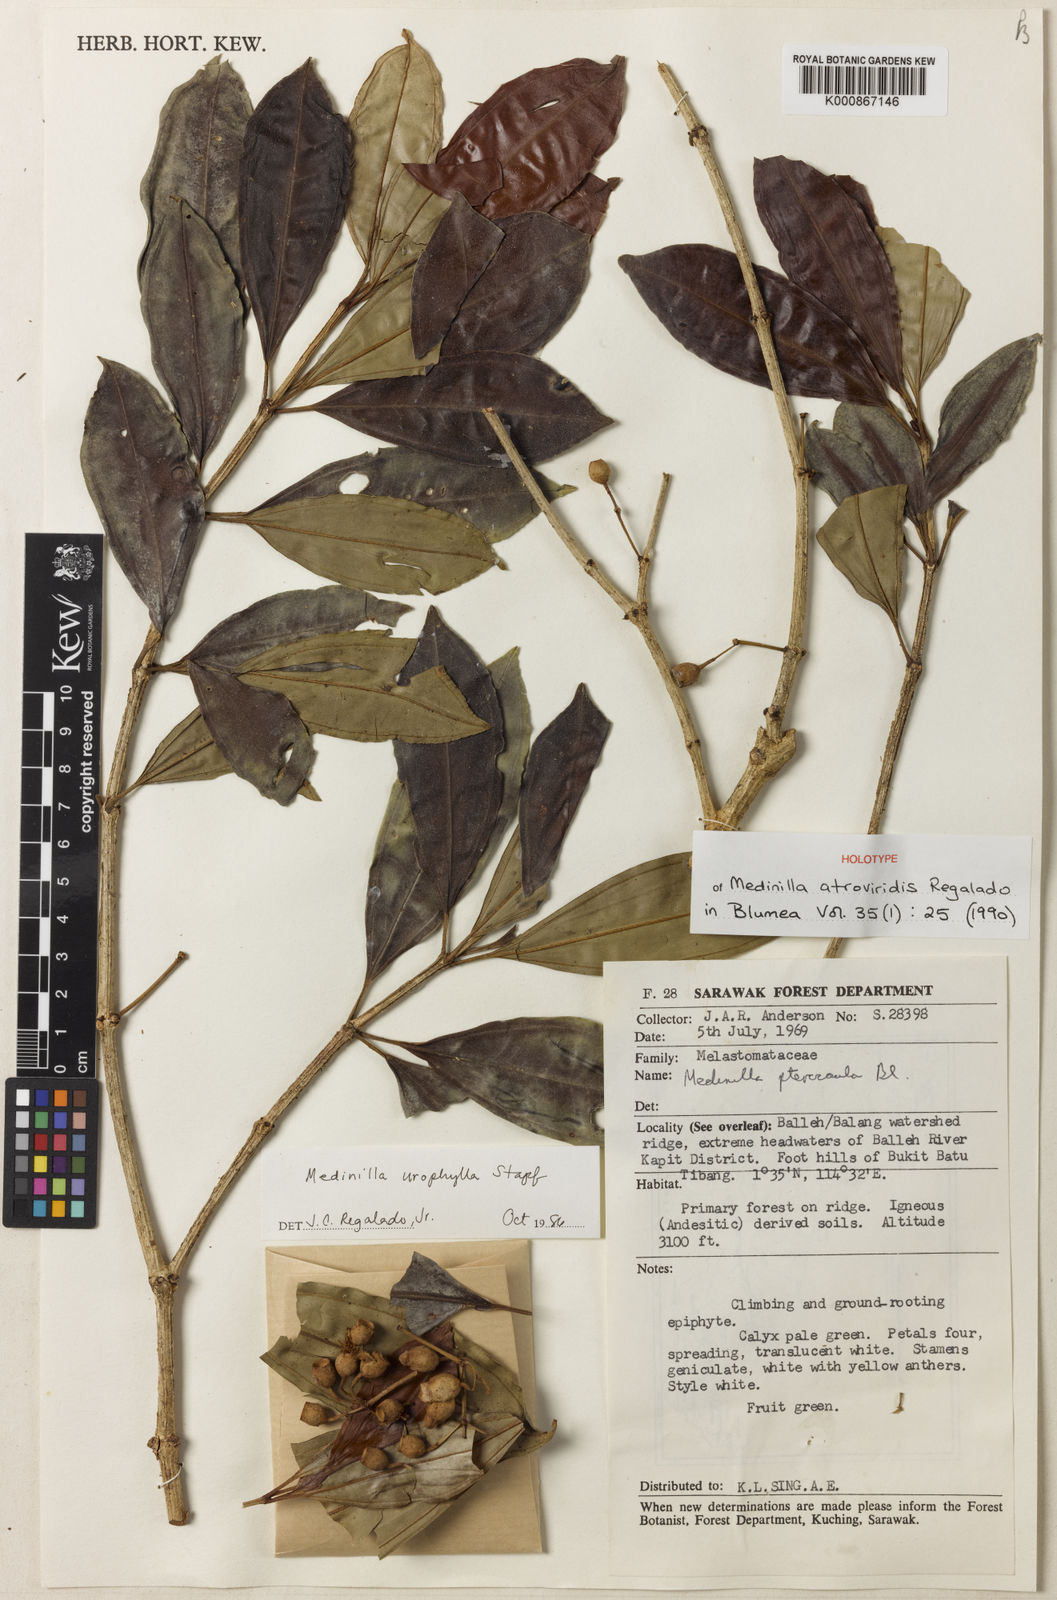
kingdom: Plantae
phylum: Tracheophyta
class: Magnoliopsida
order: Myrtales
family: Melastomataceae
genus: Medinilla
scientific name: Medinilla atroviridis
